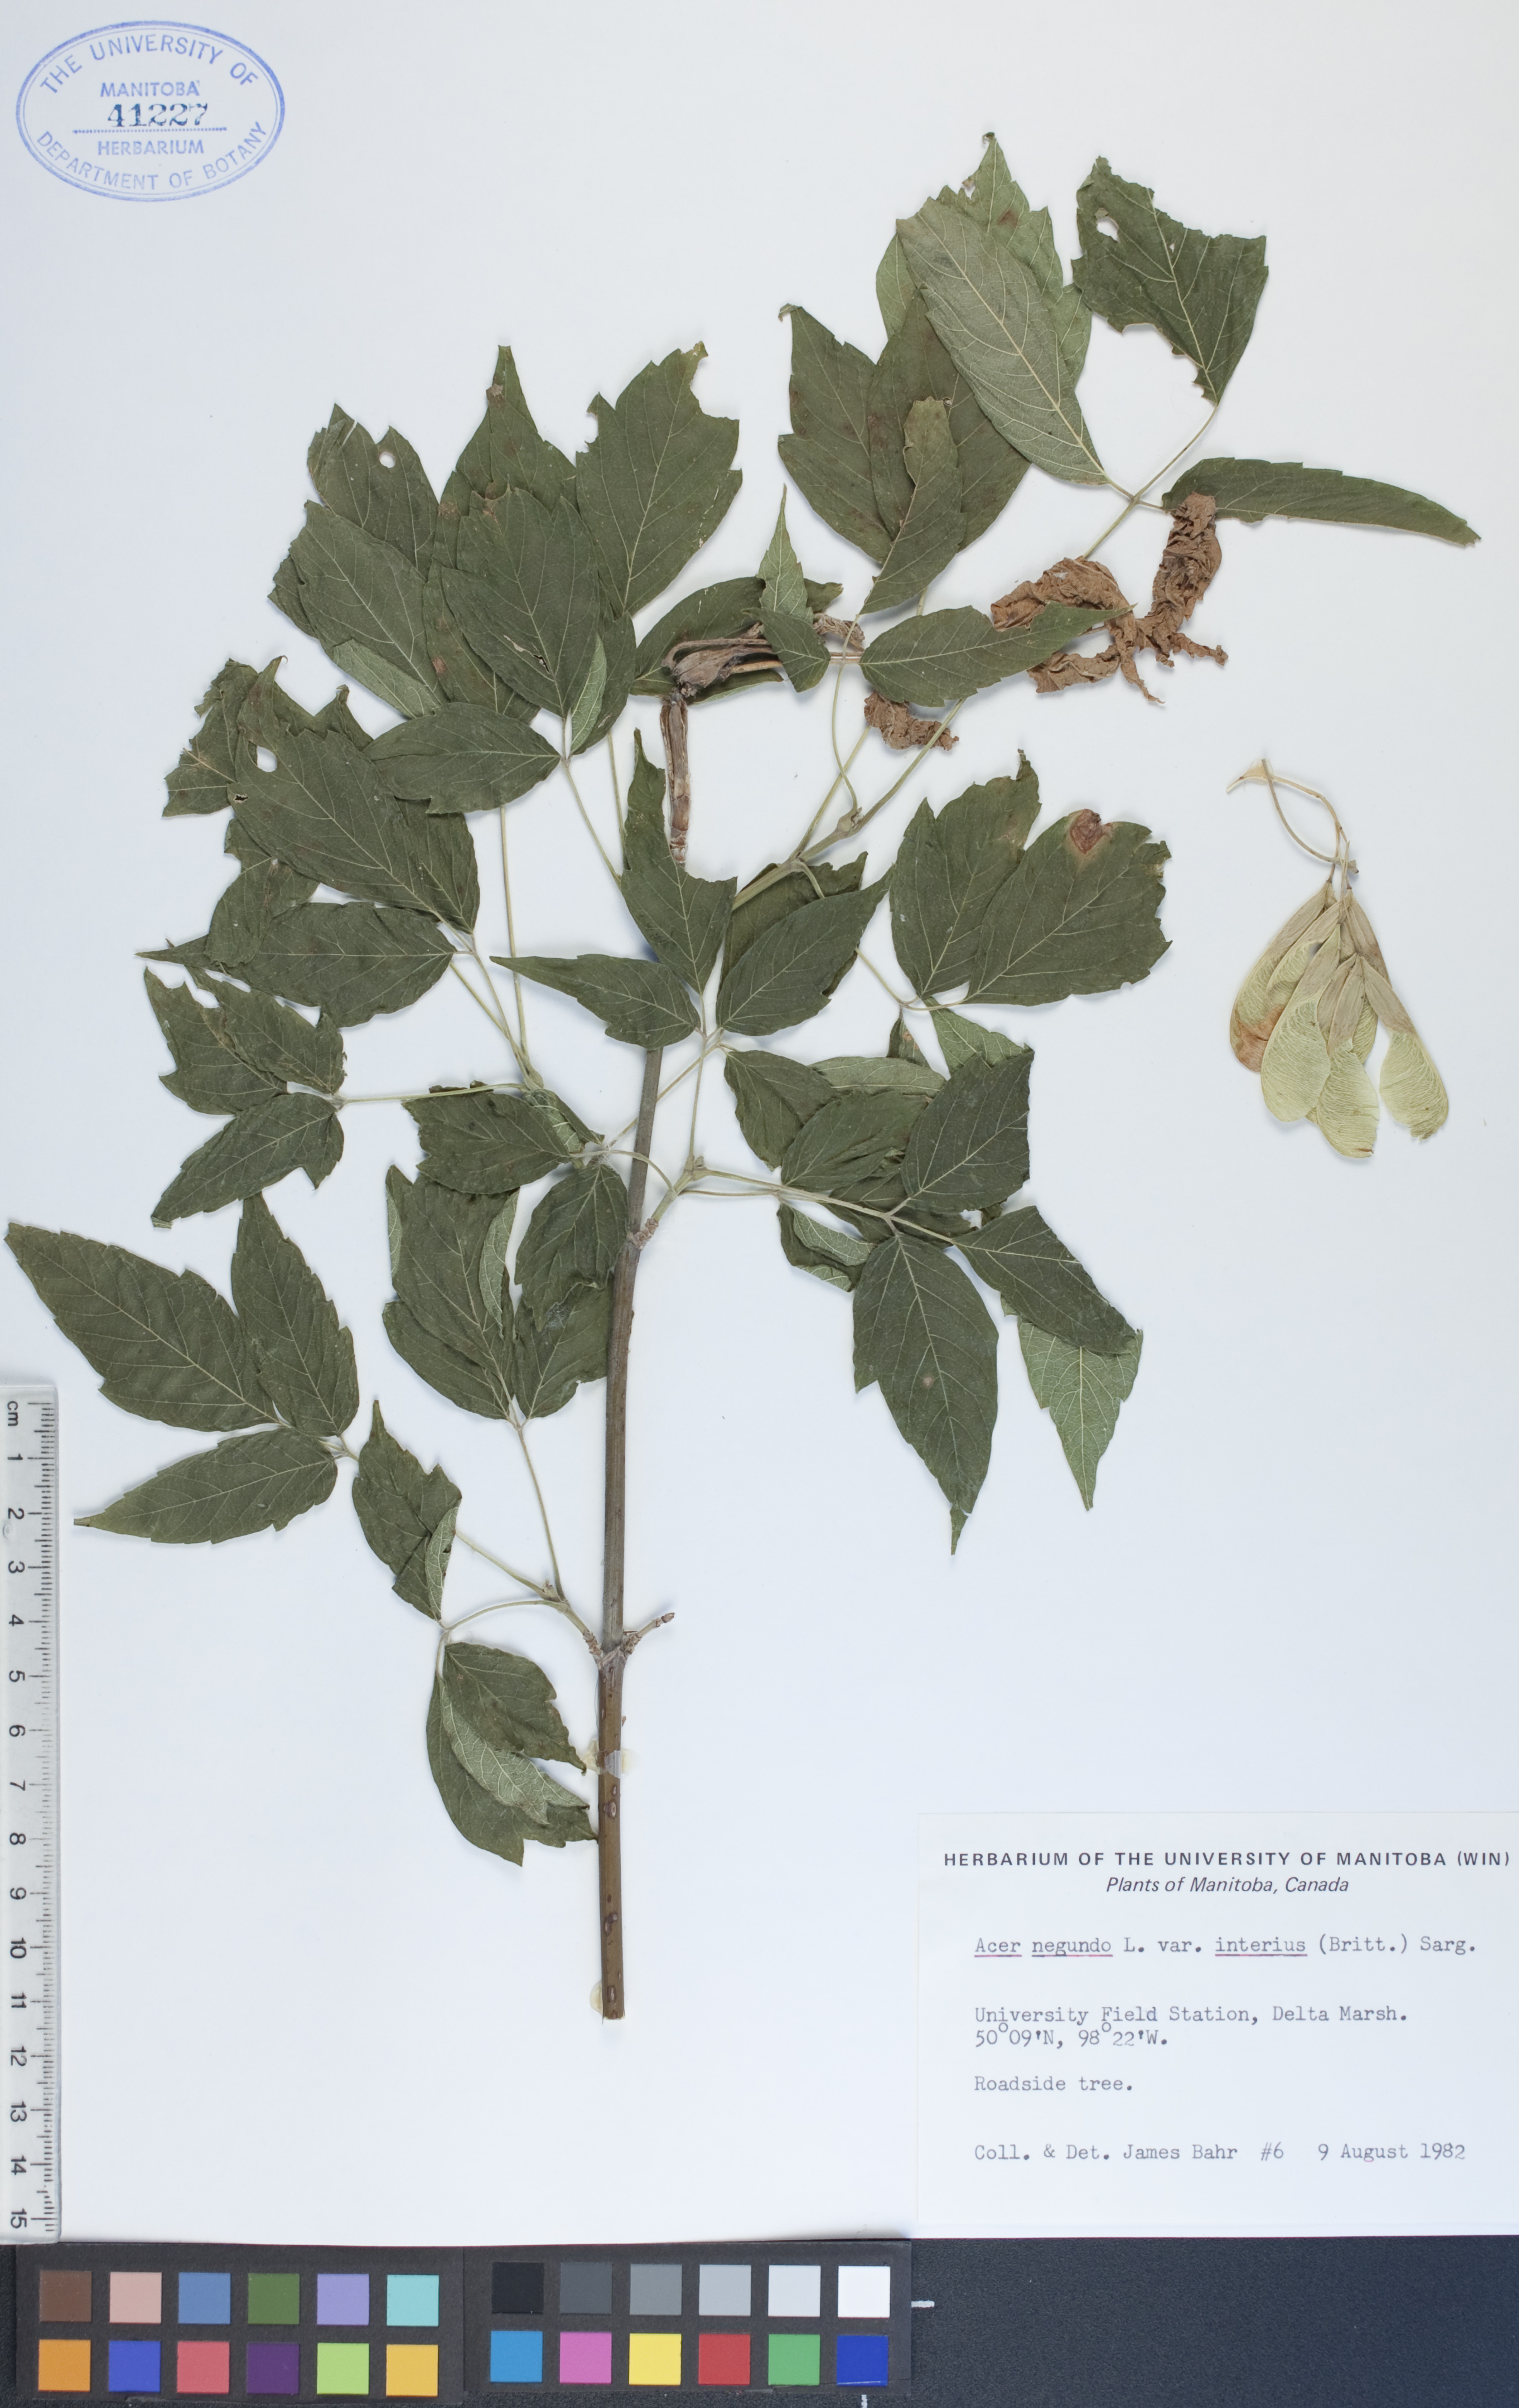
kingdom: Plantae
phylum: Tracheophyta
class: Magnoliopsida
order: Sapindales
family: Sapindaceae
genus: Acer
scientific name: Acer negundo
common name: Ashleaf maple
